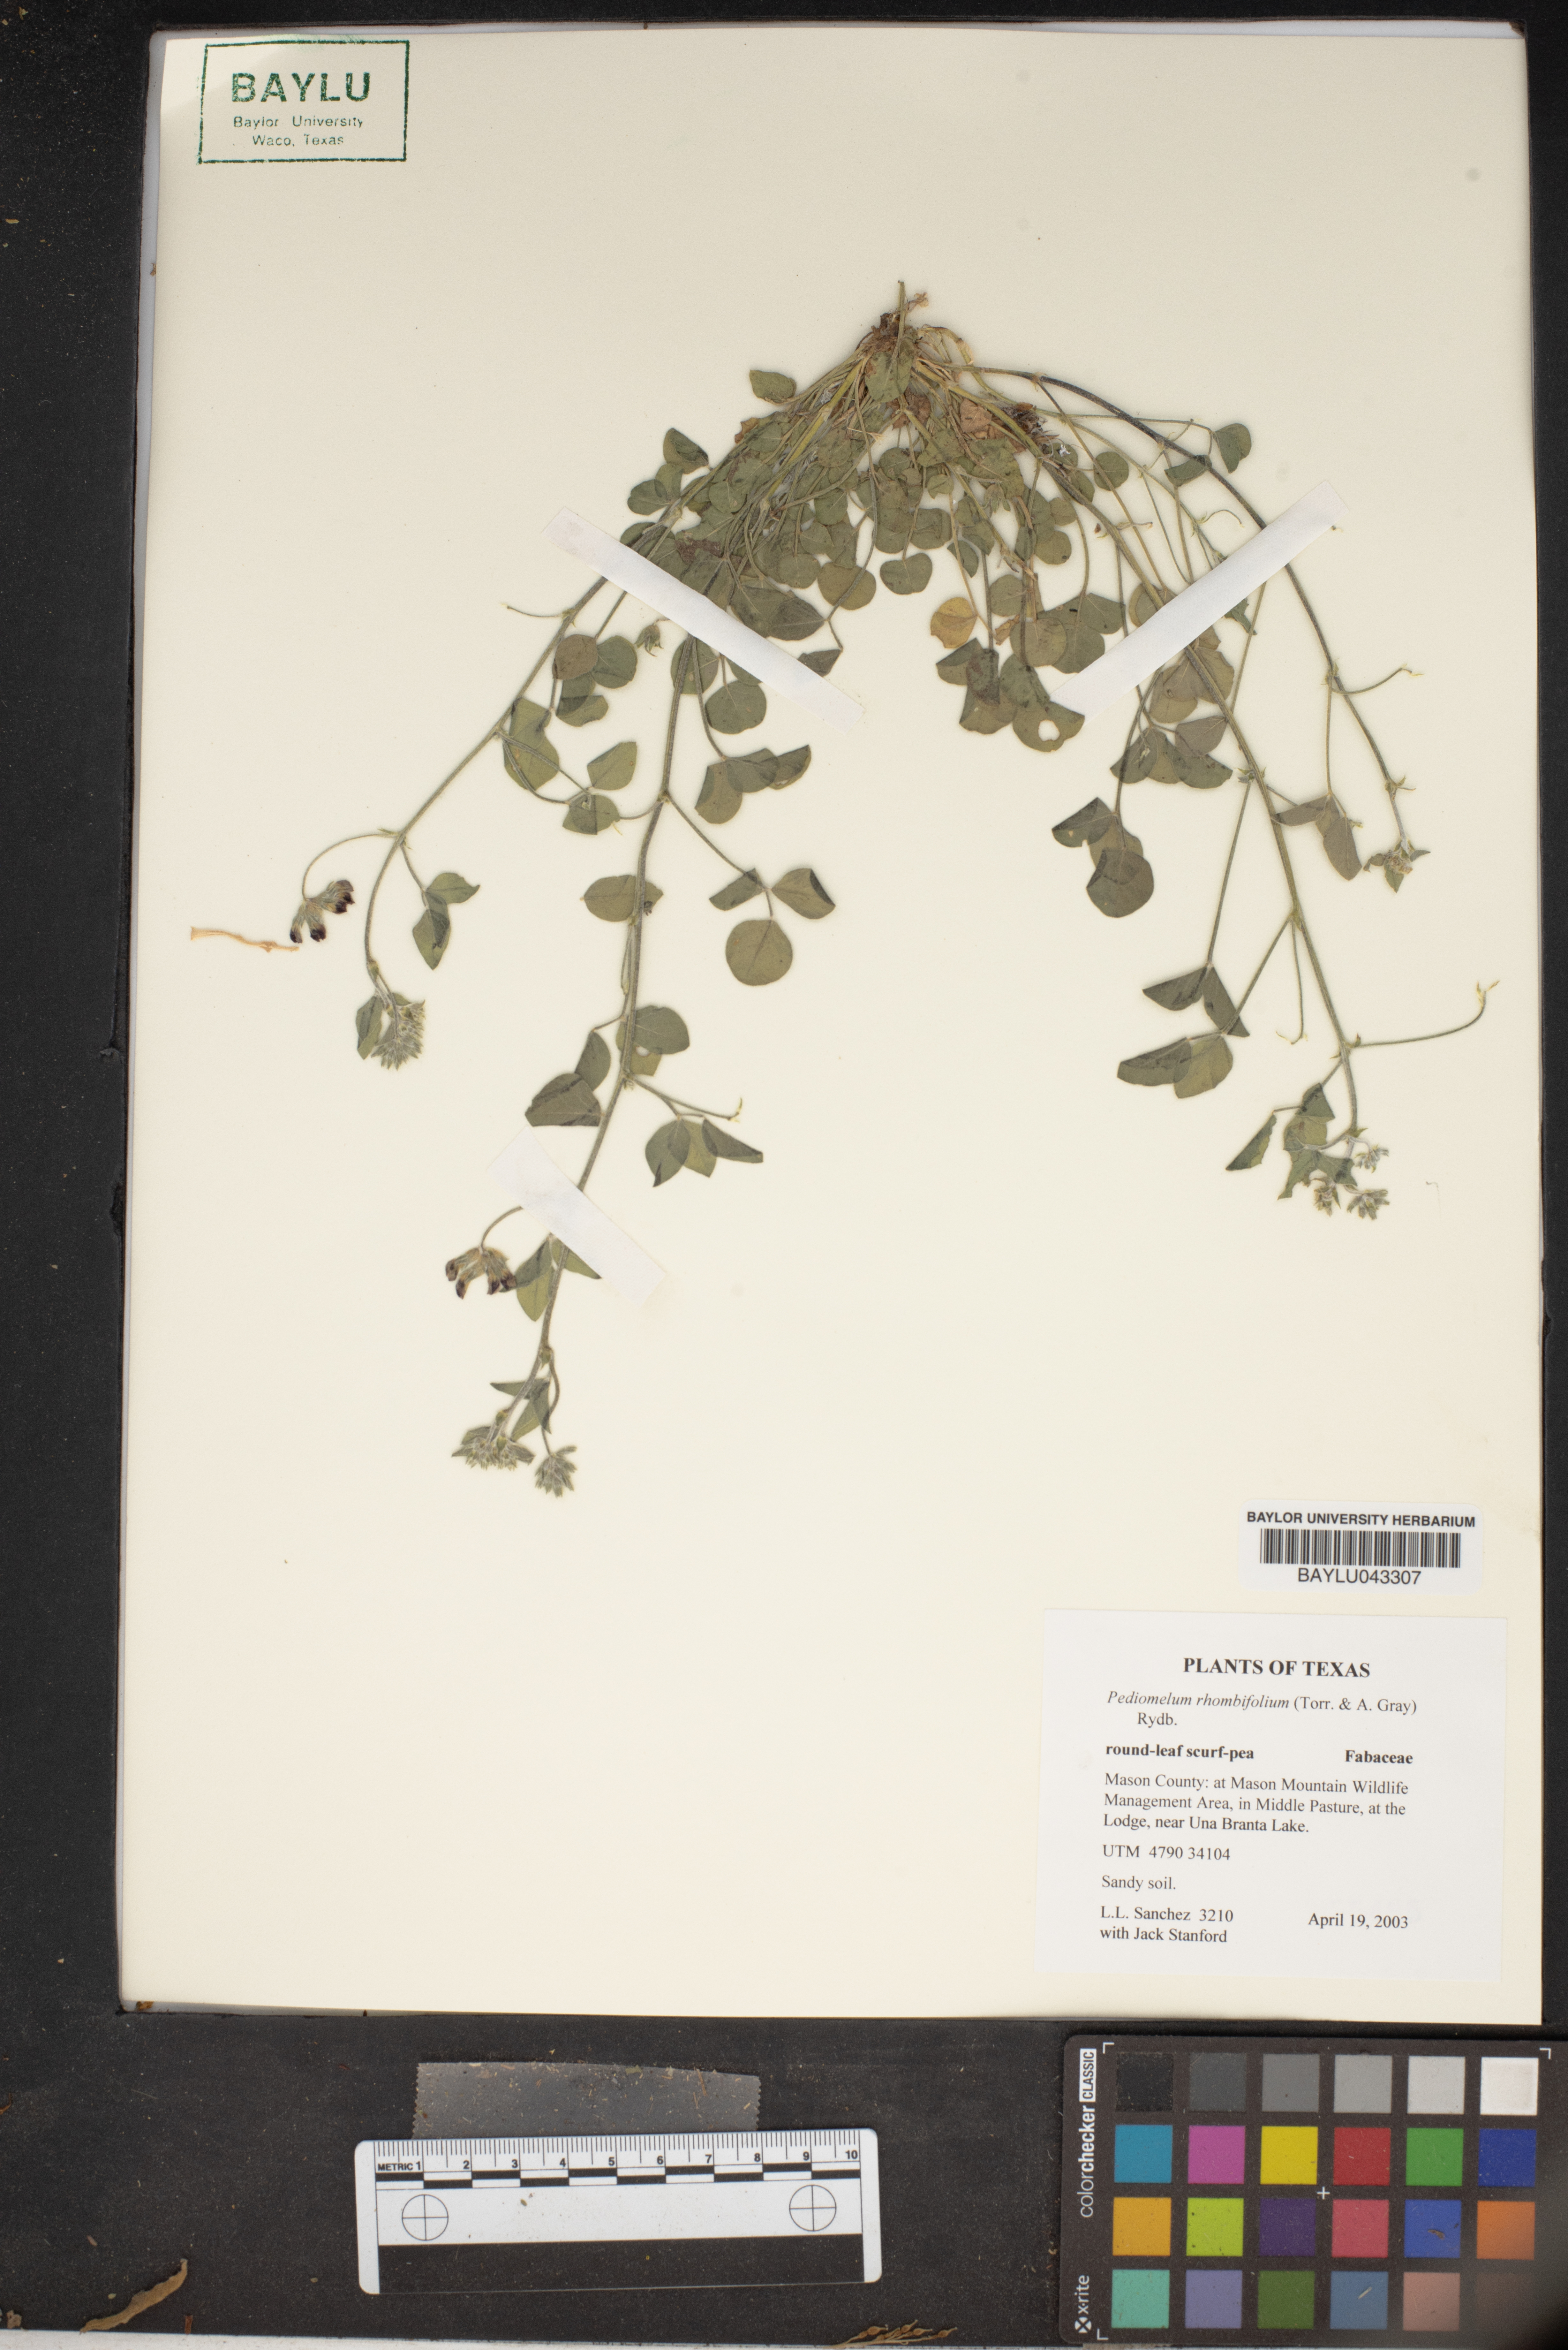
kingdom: Plantae
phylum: Tracheophyta
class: Magnoliopsida
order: Fabales
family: Fabaceae
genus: Pediomelum
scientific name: Pediomelum rhombifolium
